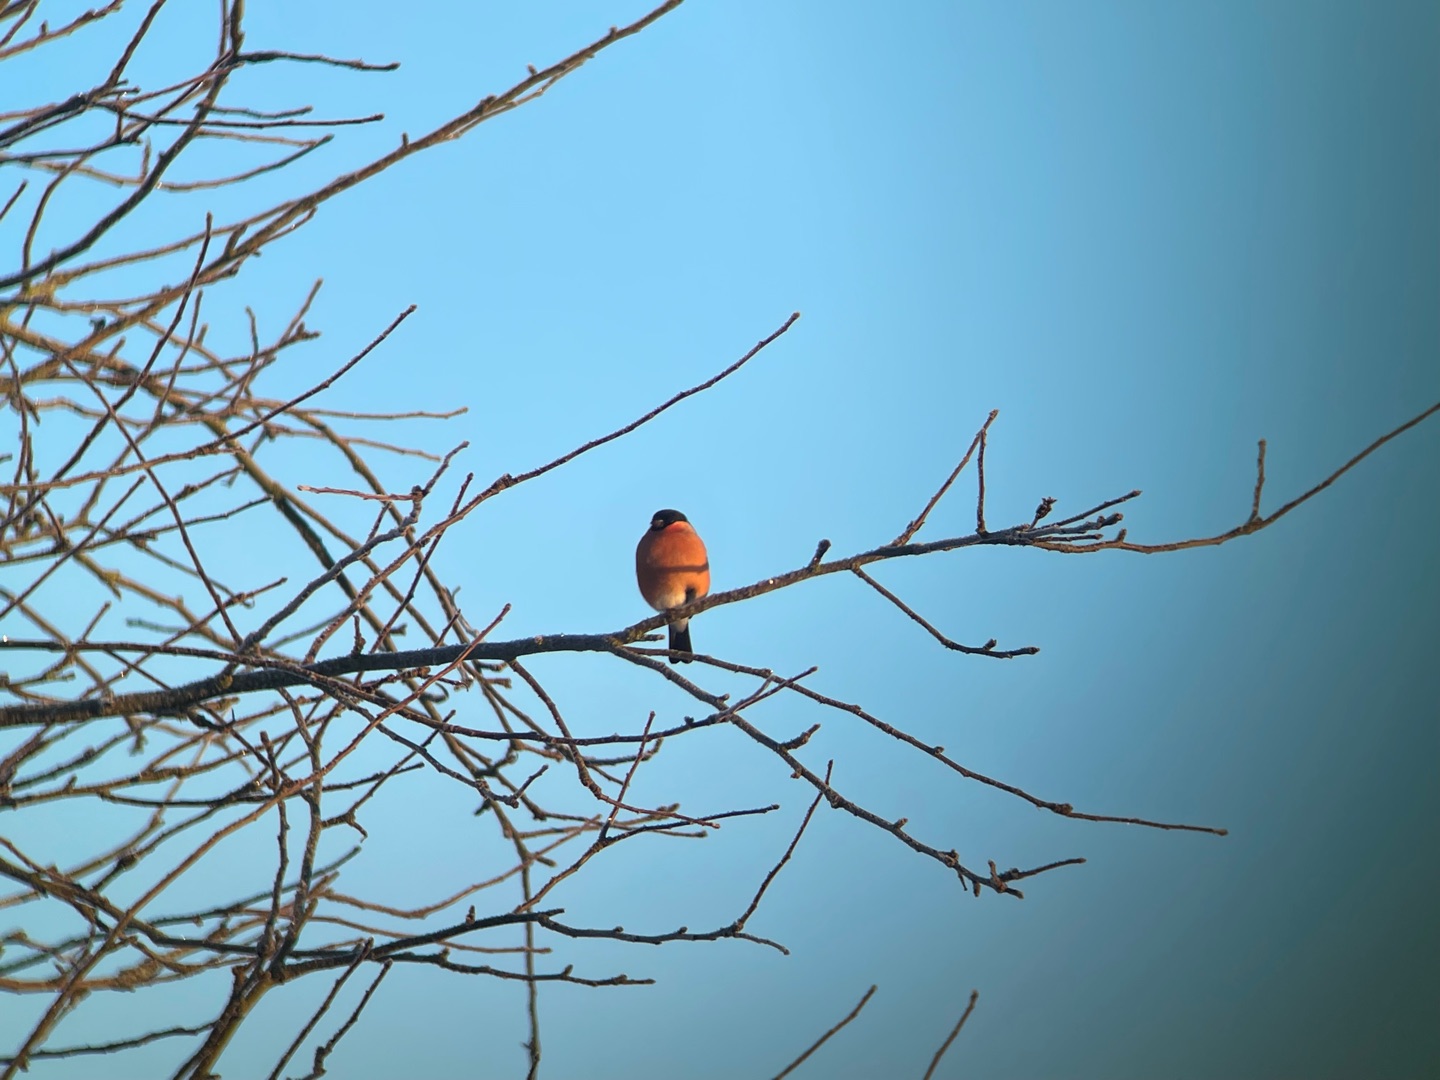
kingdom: Animalia
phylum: Chordata
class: Aves
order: Passeriformes
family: Fringillidae
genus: Pyrrhula
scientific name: Pyrrhula pyrrhula
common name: Dompap
